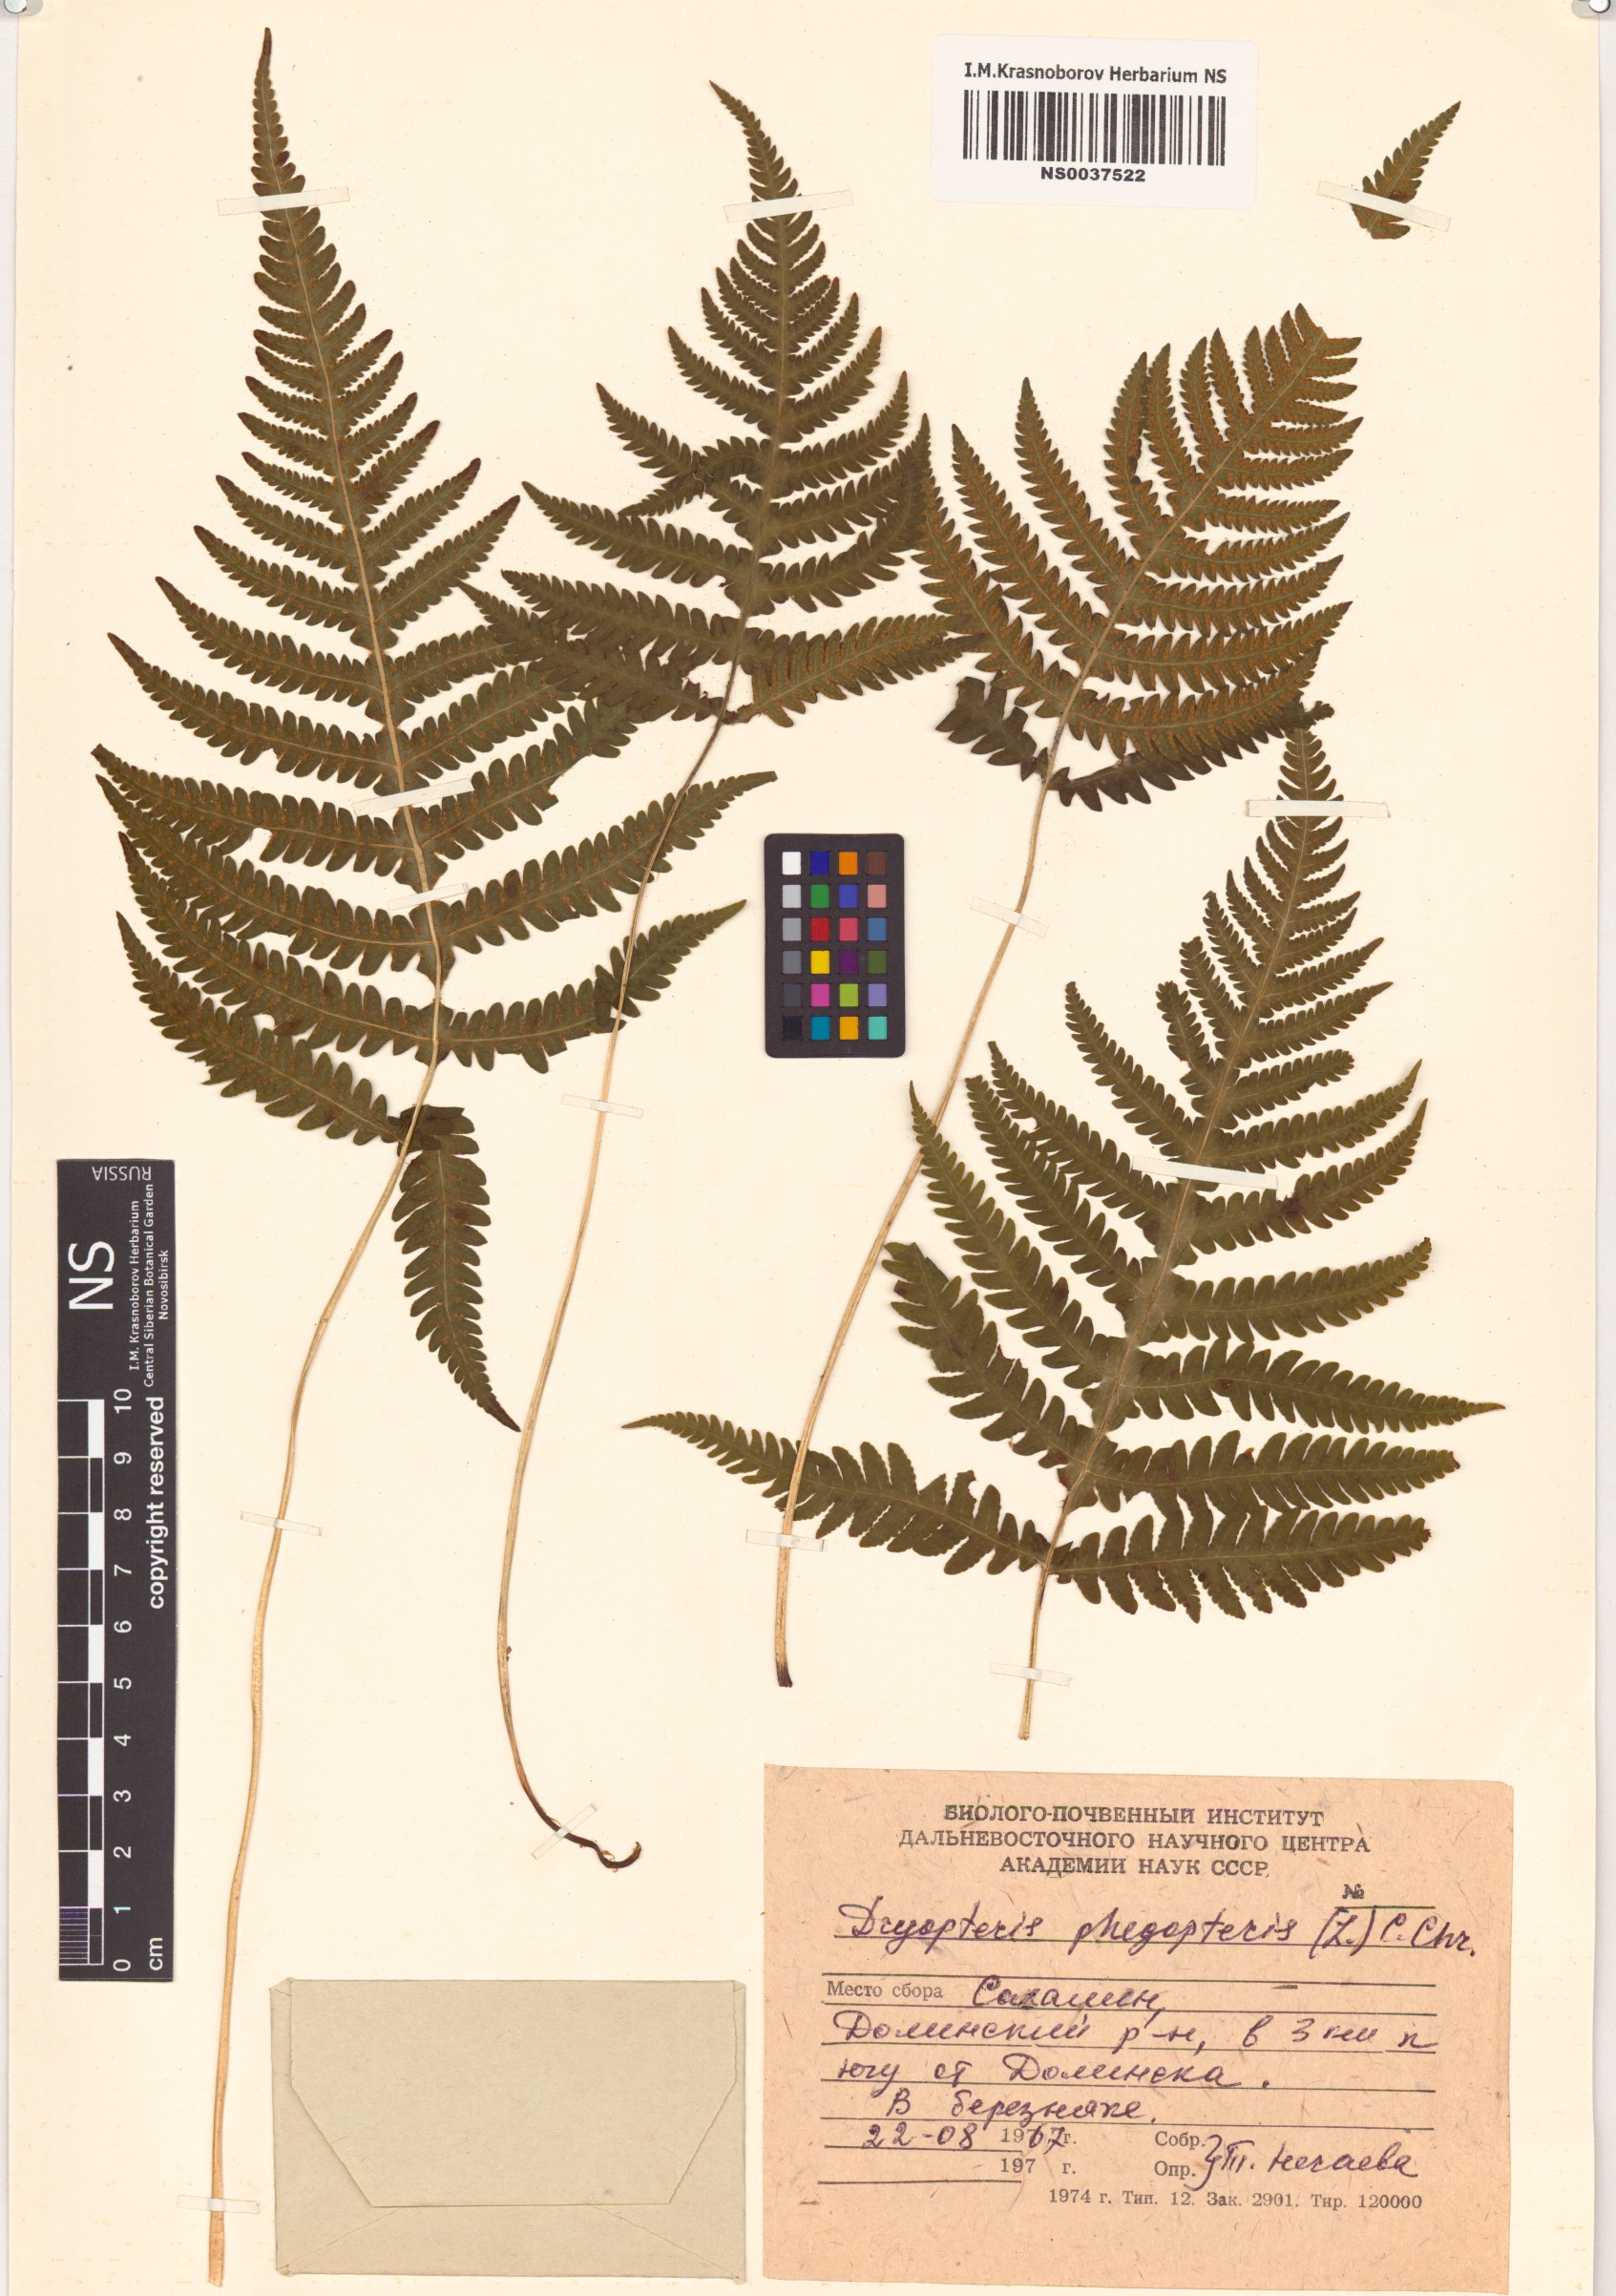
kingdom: Plantae
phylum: Tracheophyta
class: Polypodiopsida
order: Polypodiales
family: Thelypteridaceae
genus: Phegopteris
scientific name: Phegopteris connectilis
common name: Beech fern
